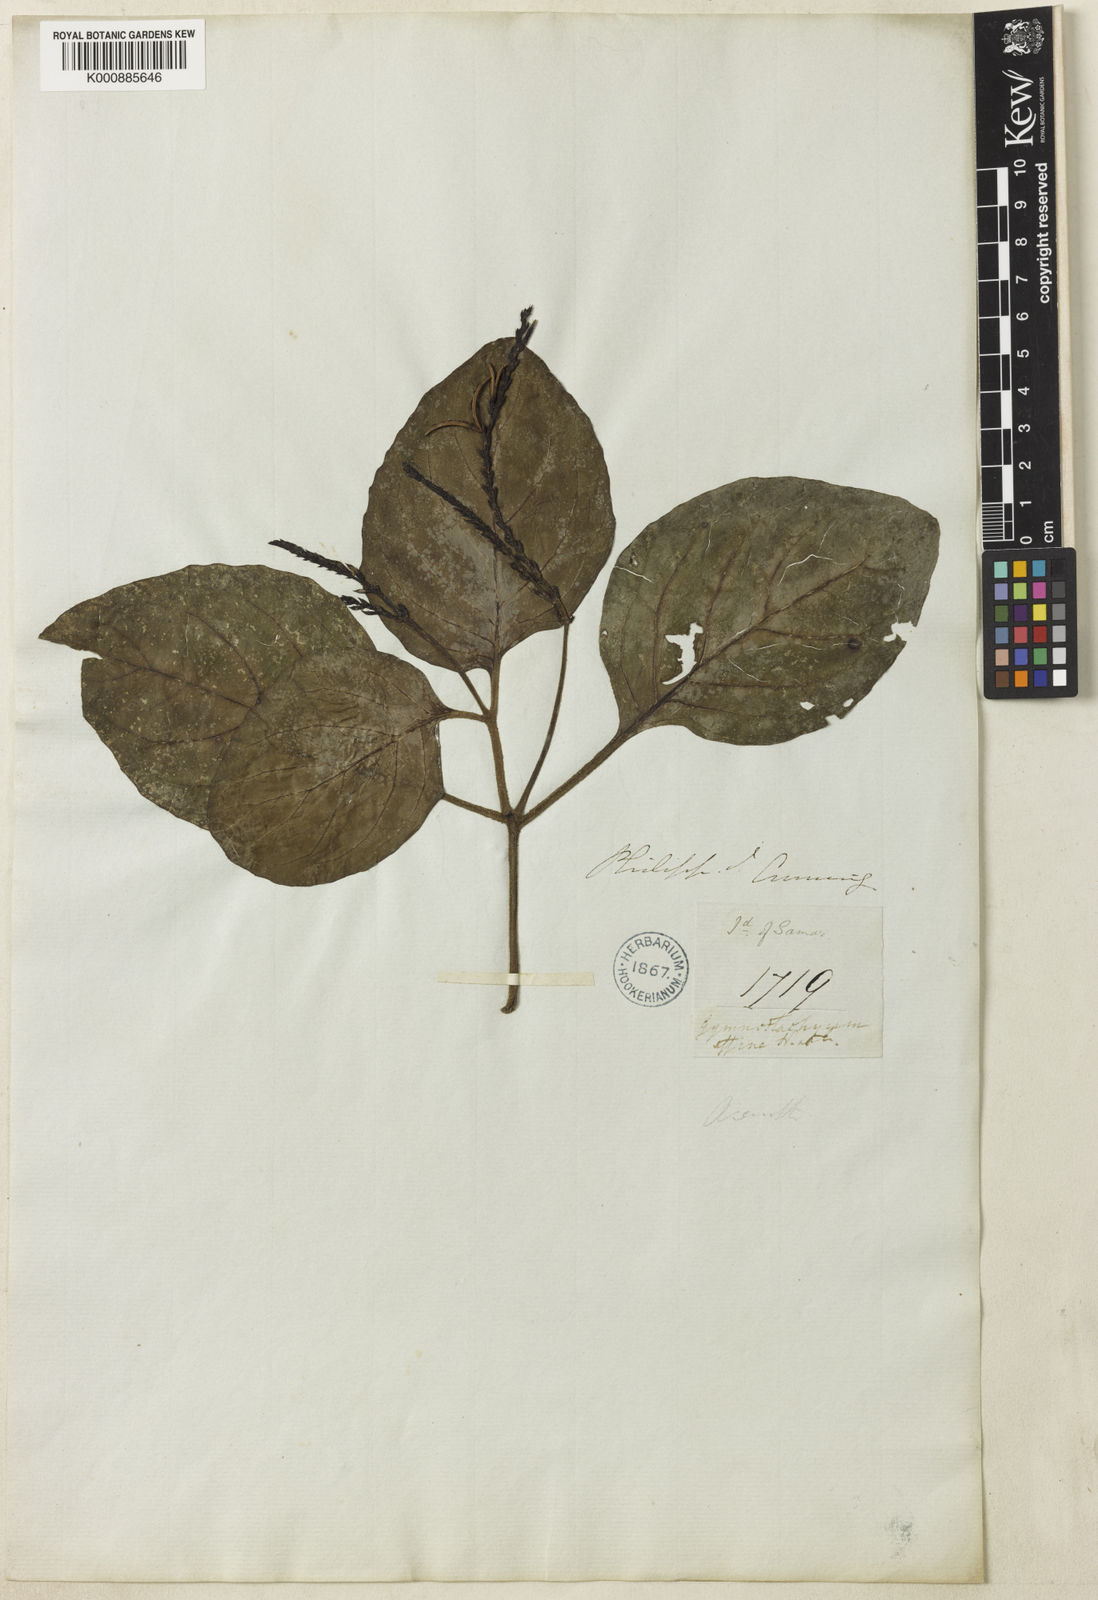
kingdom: Plantae
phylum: Tracheophyta
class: Magnoliopsida
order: Lamiales
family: Acanthaceae
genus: Gymnostachyum
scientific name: Gymnostachyum affine
